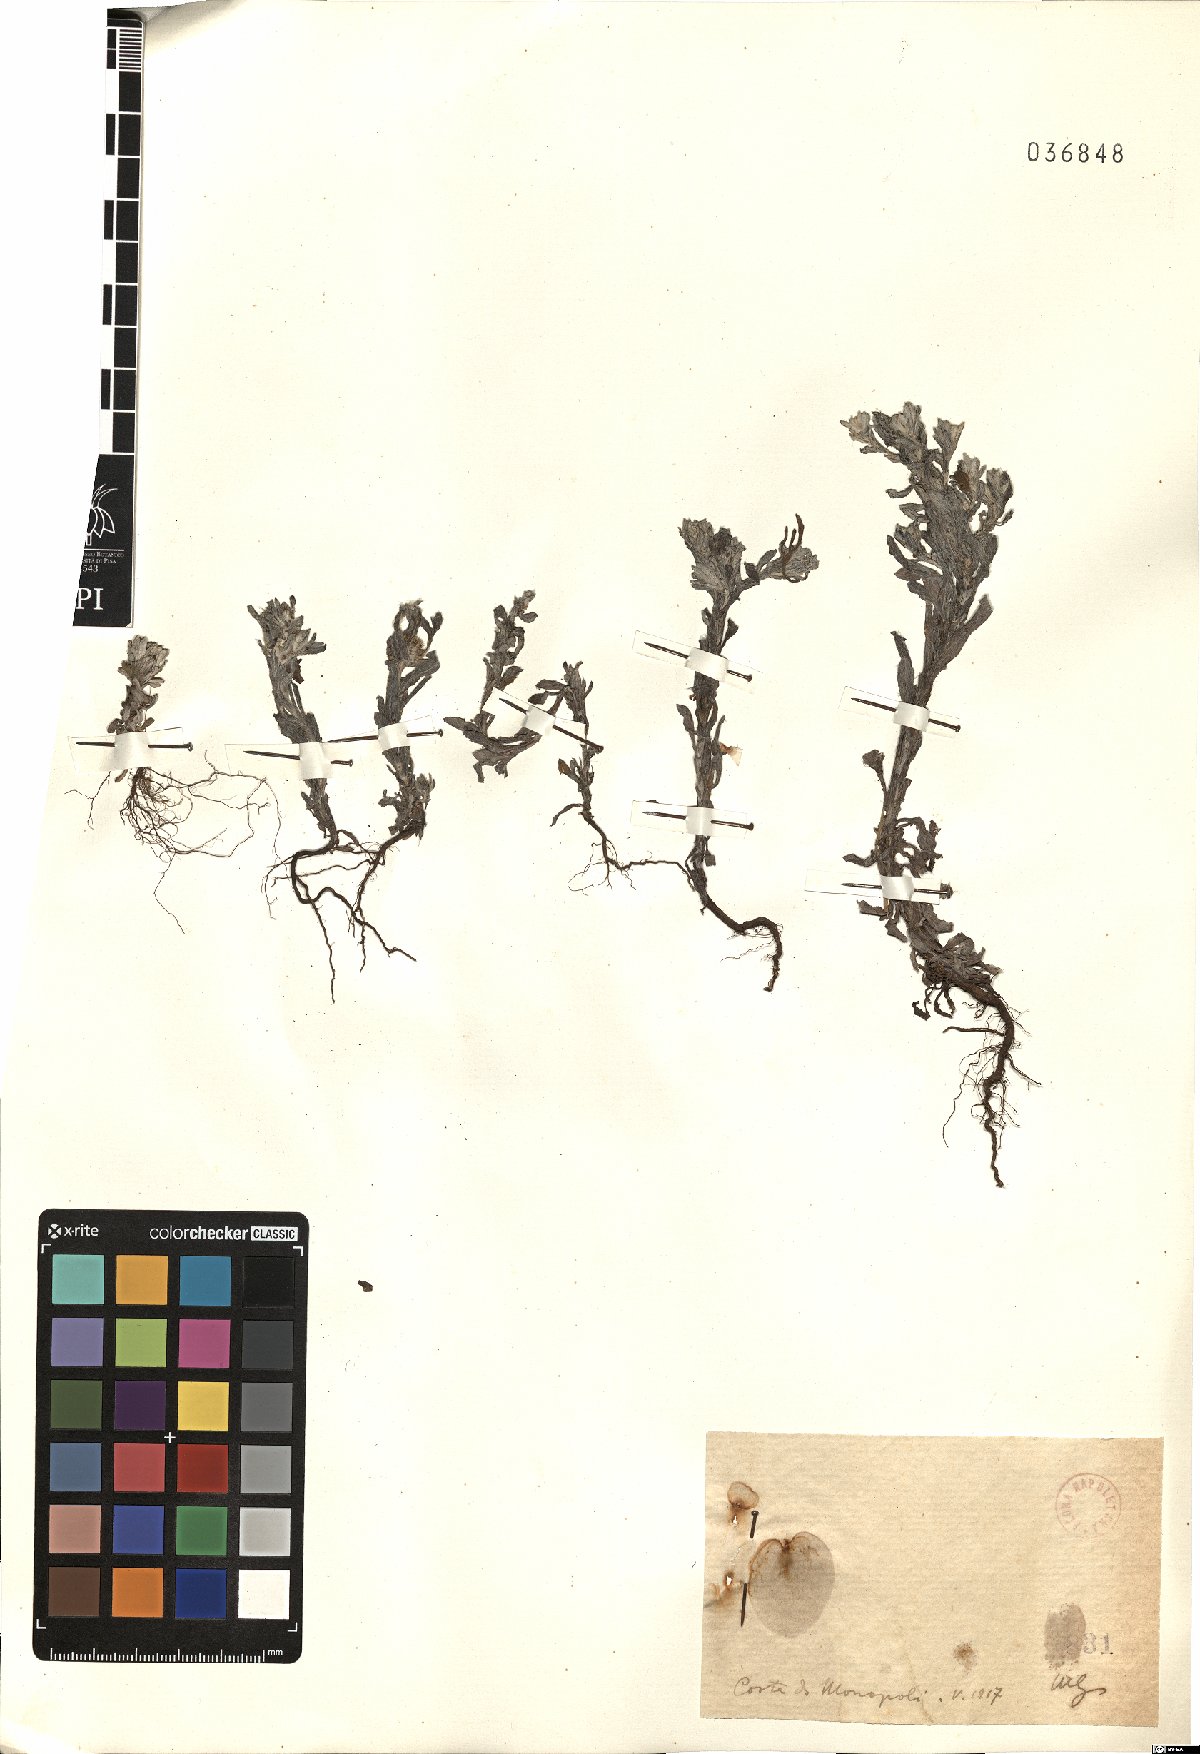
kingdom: Plantae
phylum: Tracheophyta
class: Magnoliopsida
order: Asterales
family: Asteraceae
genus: Filago
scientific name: Filago
